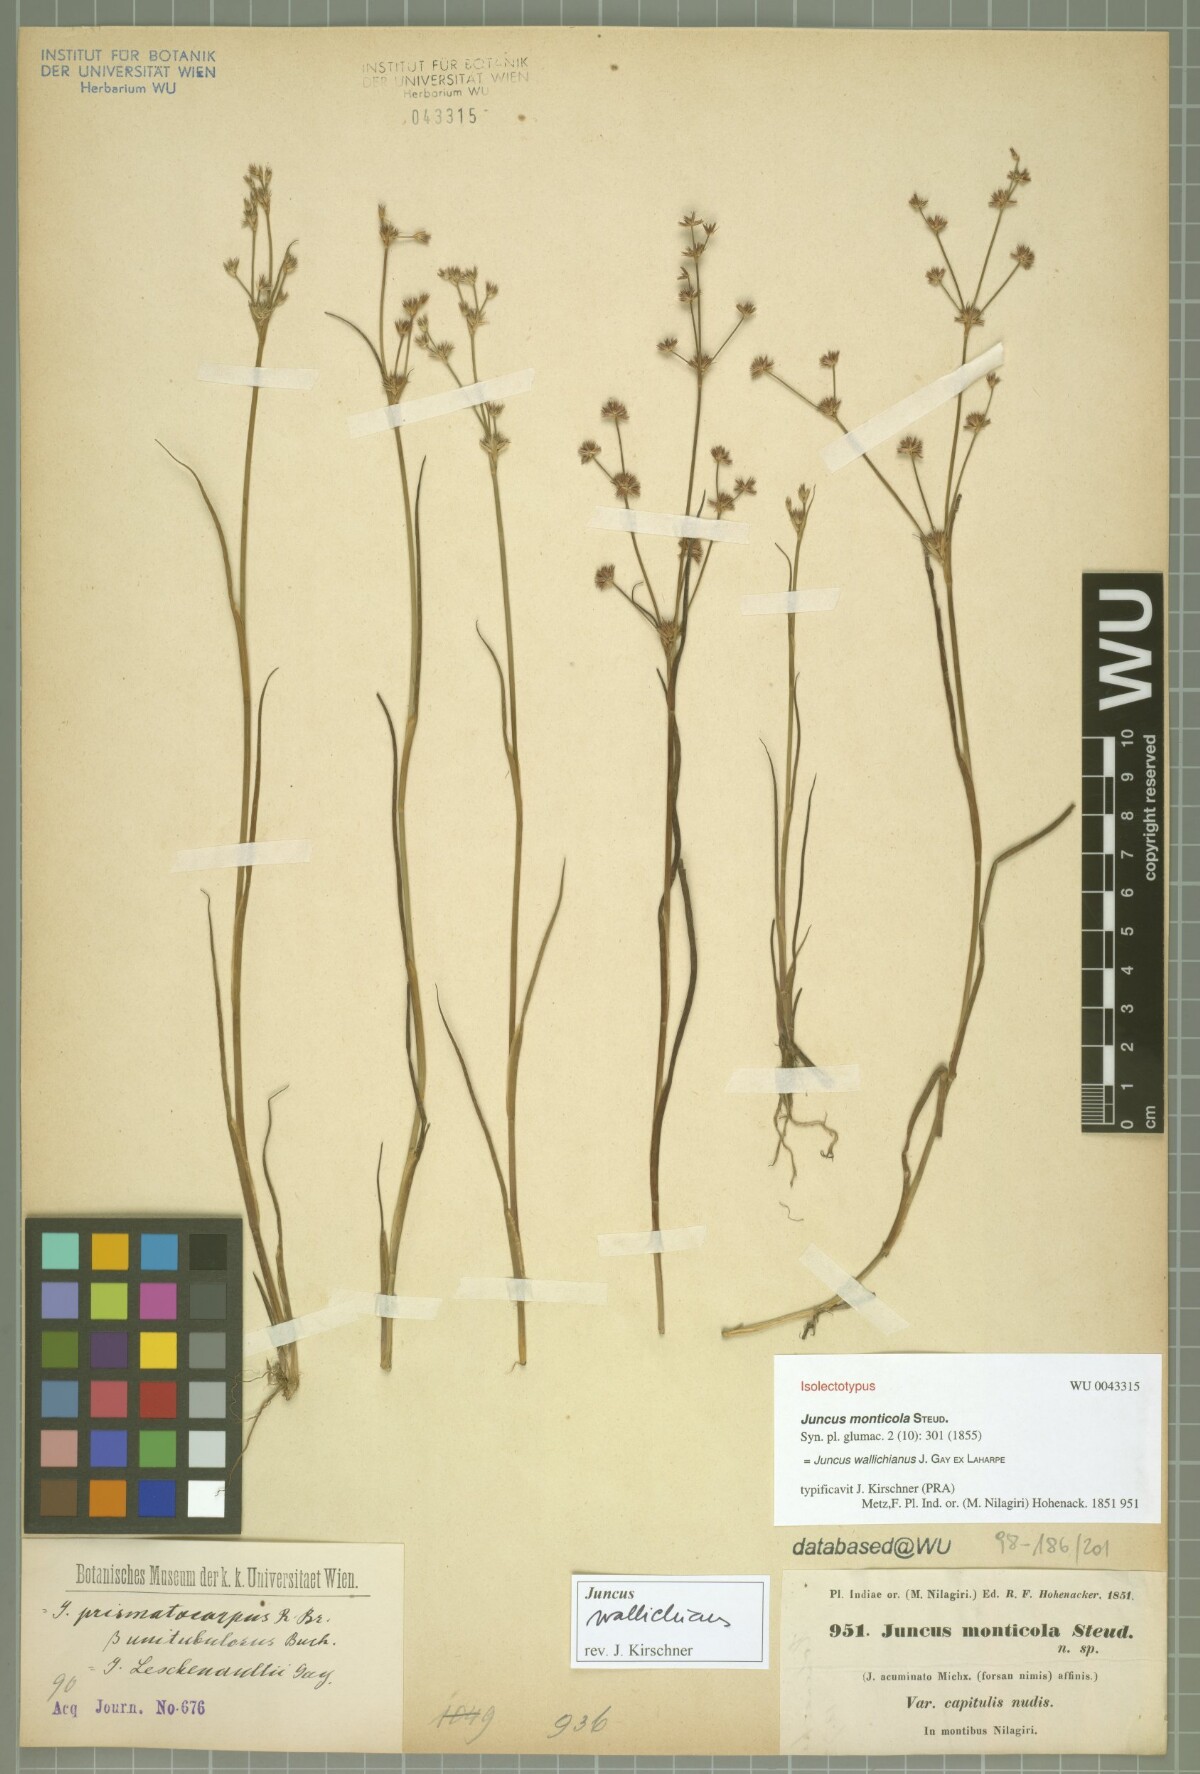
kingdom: Plantae
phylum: Tracheophyta
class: Liliopsida
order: Poales
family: Juncaceae
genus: Juncus
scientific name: Juncus wallichianus
